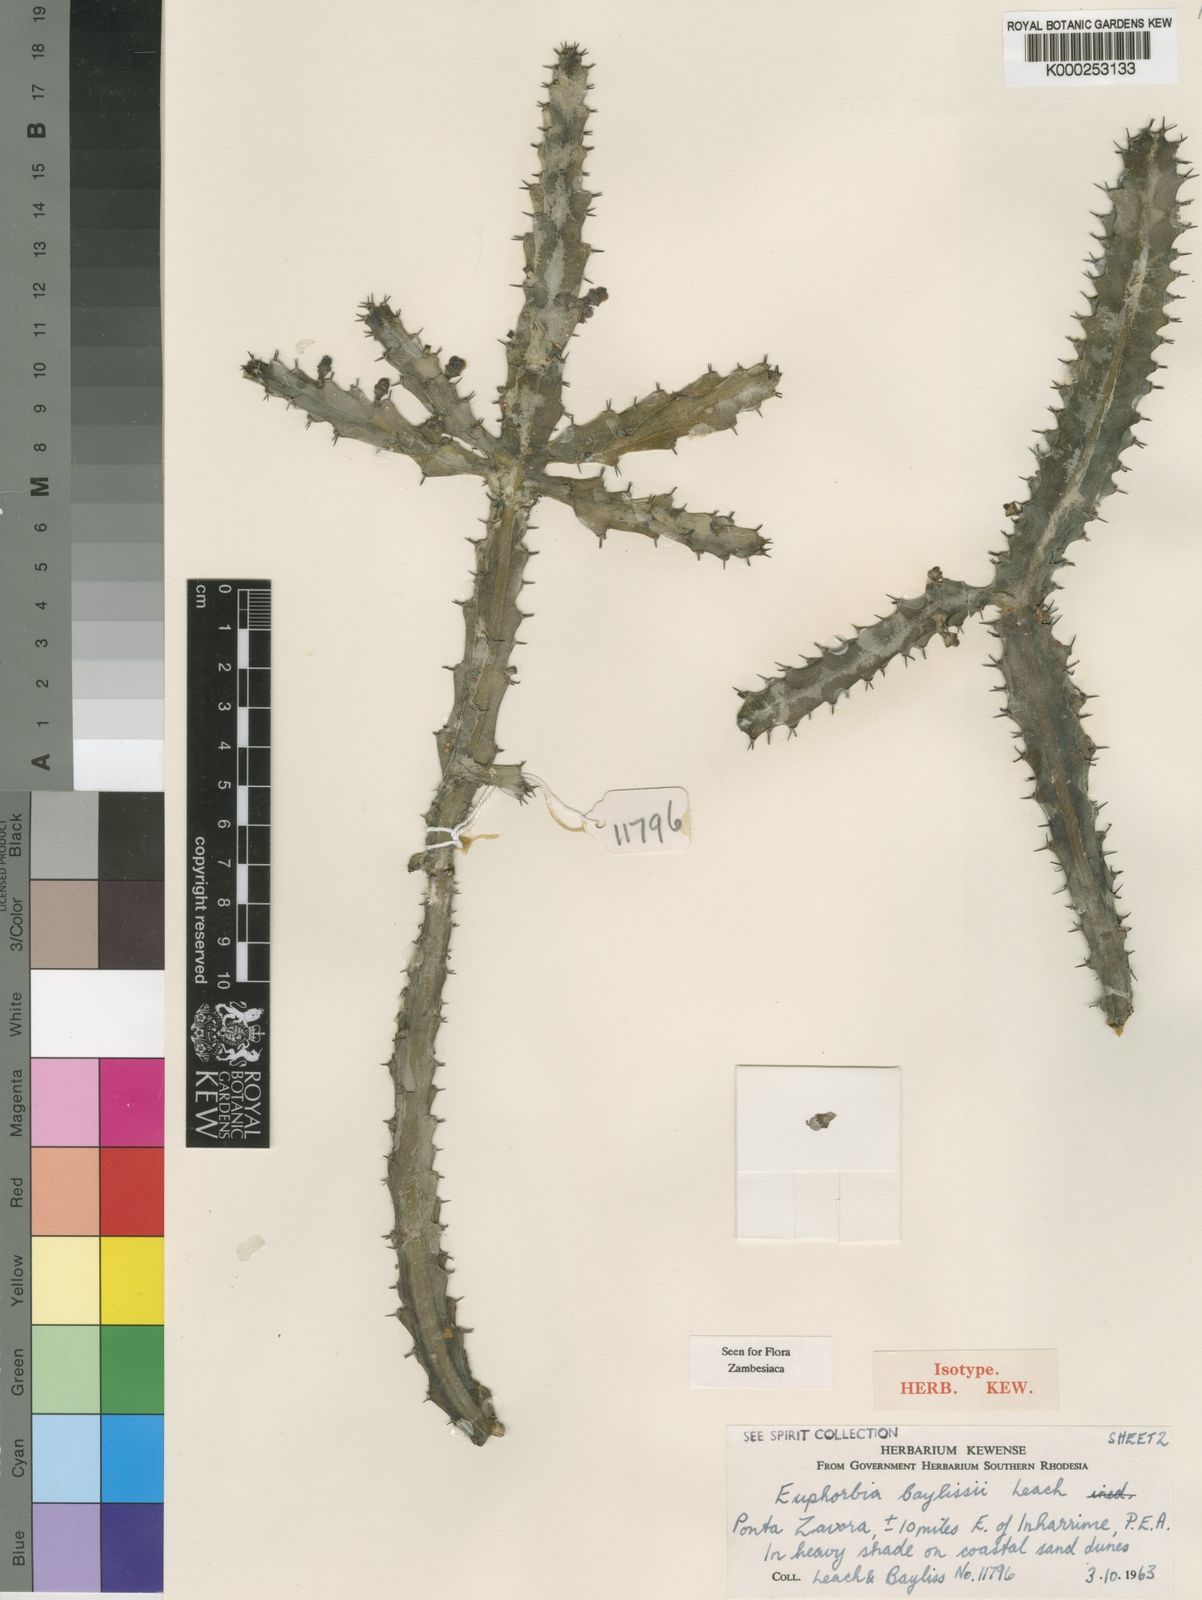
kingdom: Plantae
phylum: Tracheophyta
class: Magnoliopsida
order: Malpighiales
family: Euphorbiaceae
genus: Euphorbia
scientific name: Euphorbia baylissii
